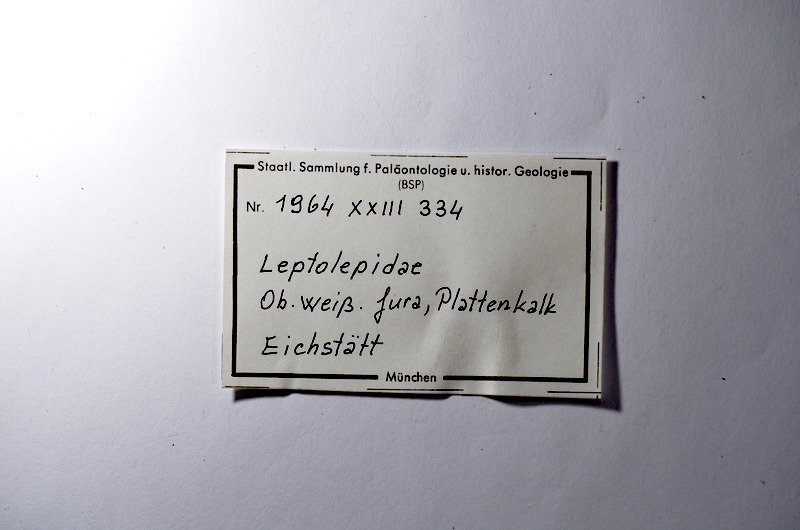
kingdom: Animalia
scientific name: Animalia
